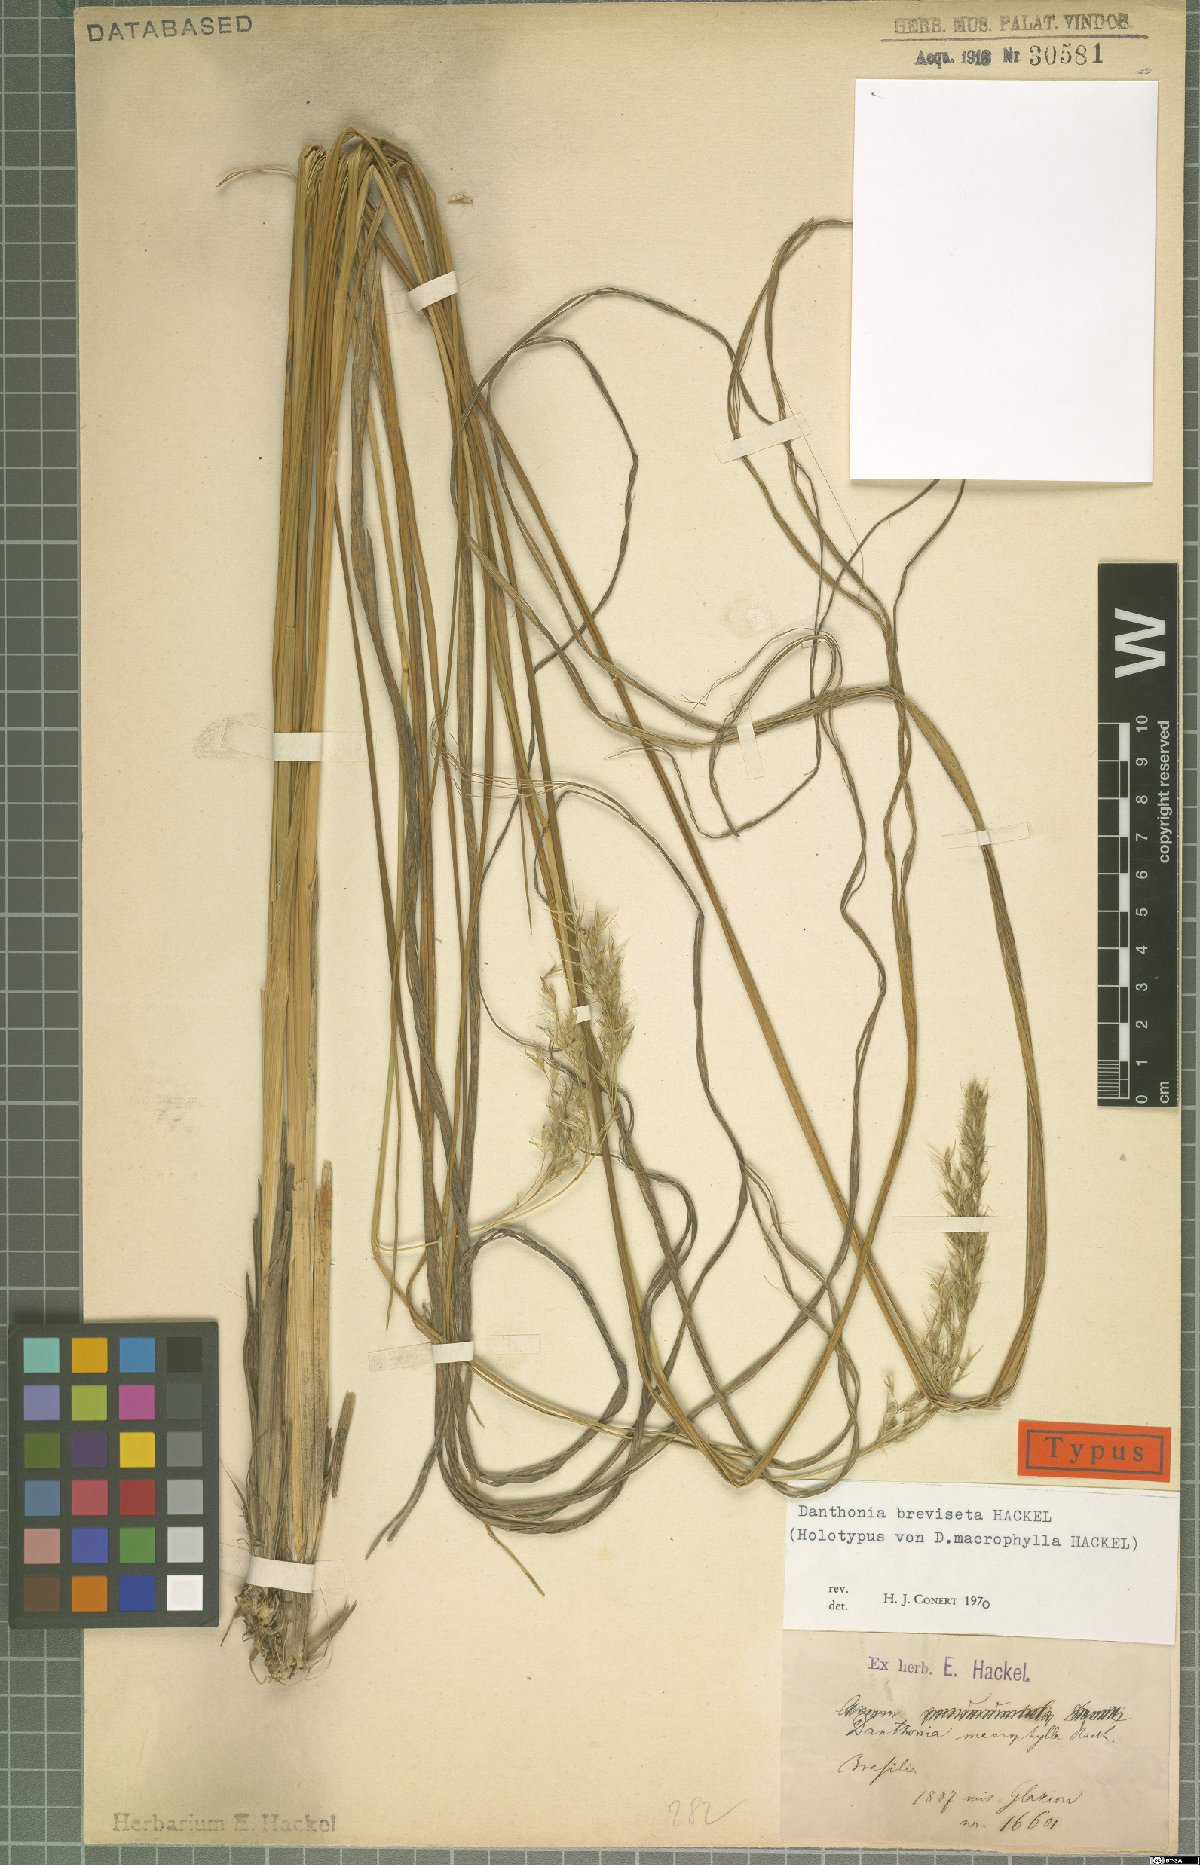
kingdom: Plantae
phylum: Tracheophyta
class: Liliopsida
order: Poales
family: Poaceae
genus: Danthonia
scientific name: Danthonia breviseta
